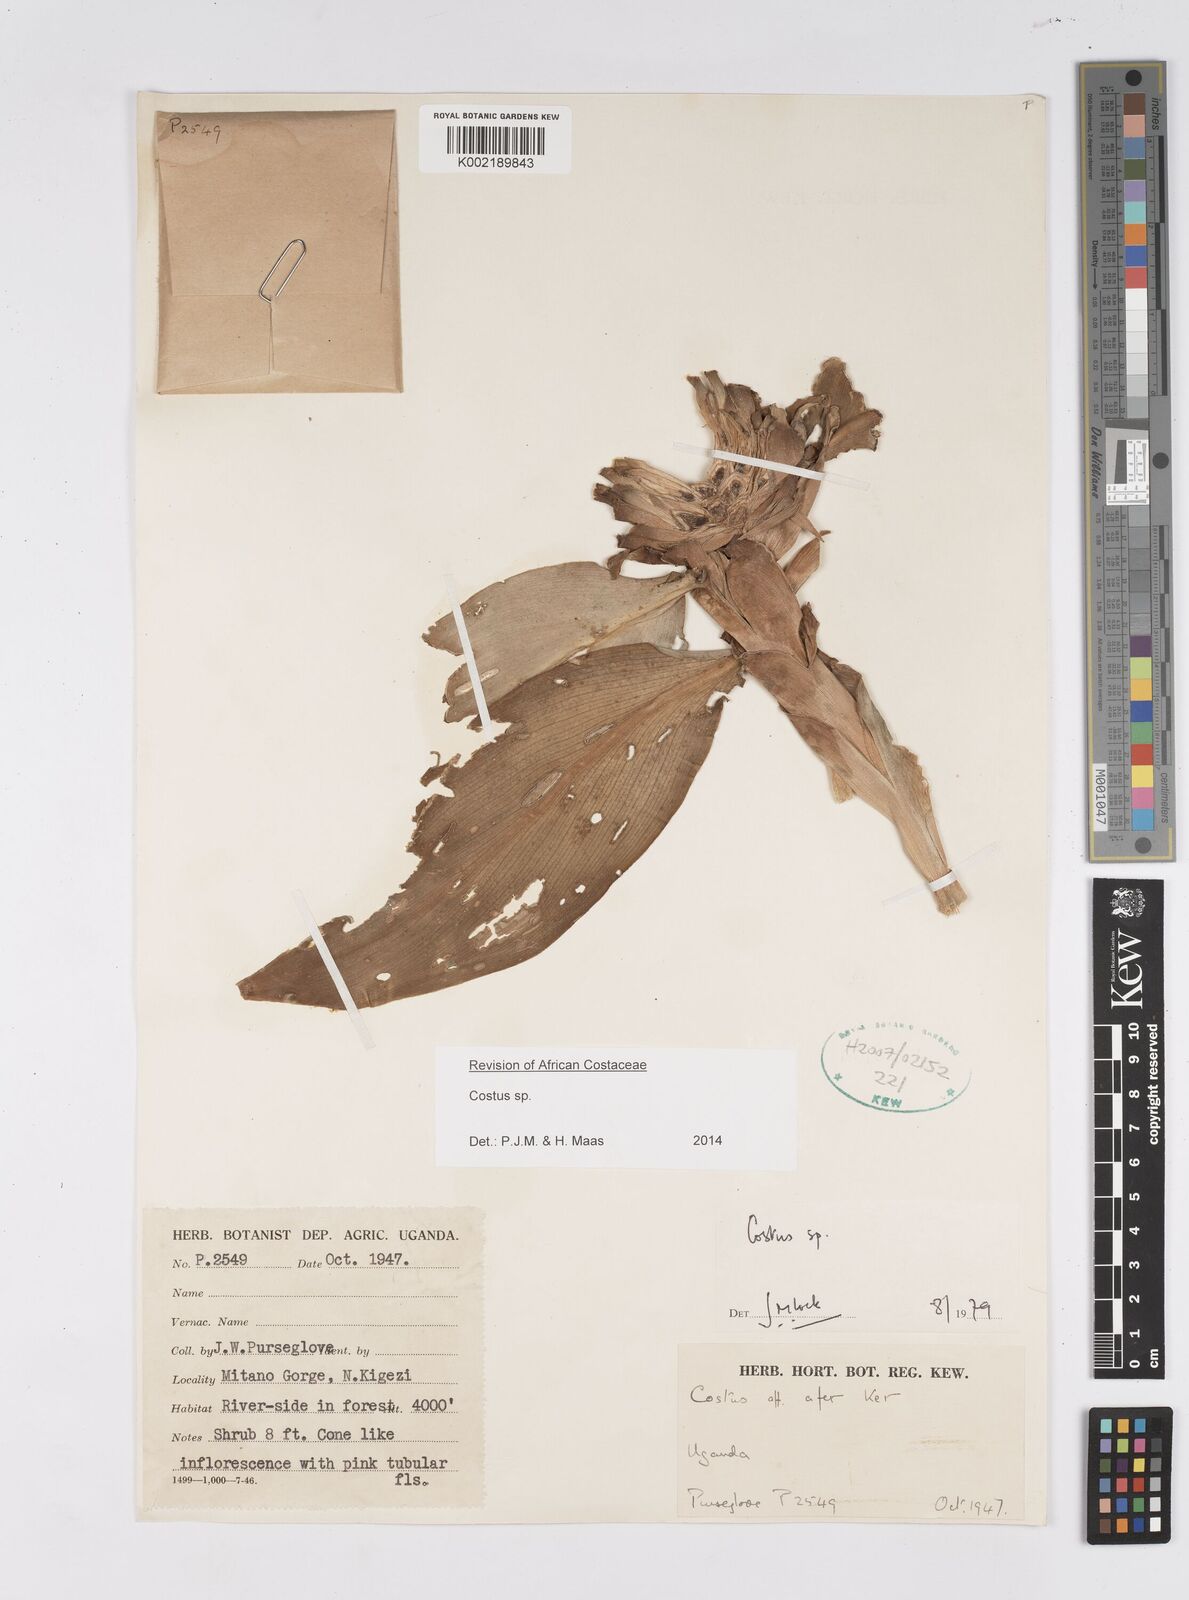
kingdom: Plantae
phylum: Tracheophyta
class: Liliopsida
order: Zingiberales
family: Costaceae
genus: Costus
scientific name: Costus
